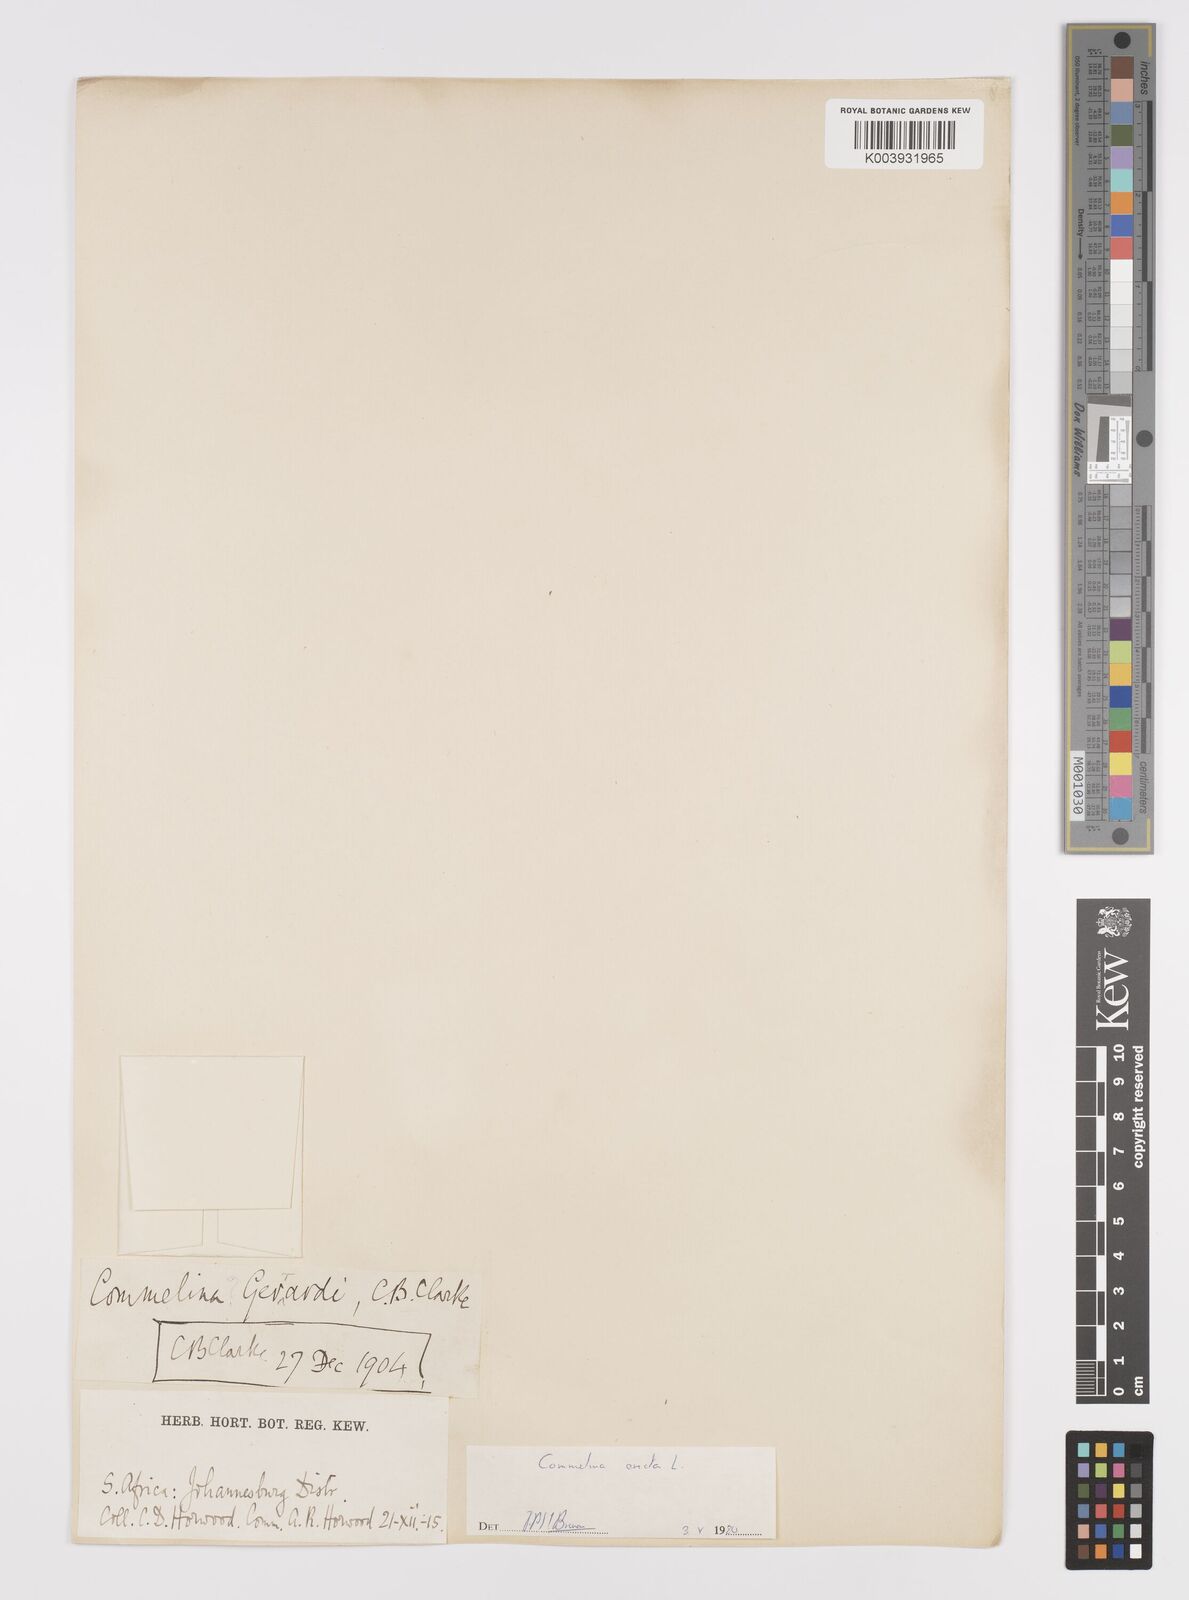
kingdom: Plantae
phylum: Tracheophyta
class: Liliopsida
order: Commelinales
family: Commelinaceae
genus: Commelina
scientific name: Commelina erecta
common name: Blousel blommetjie
